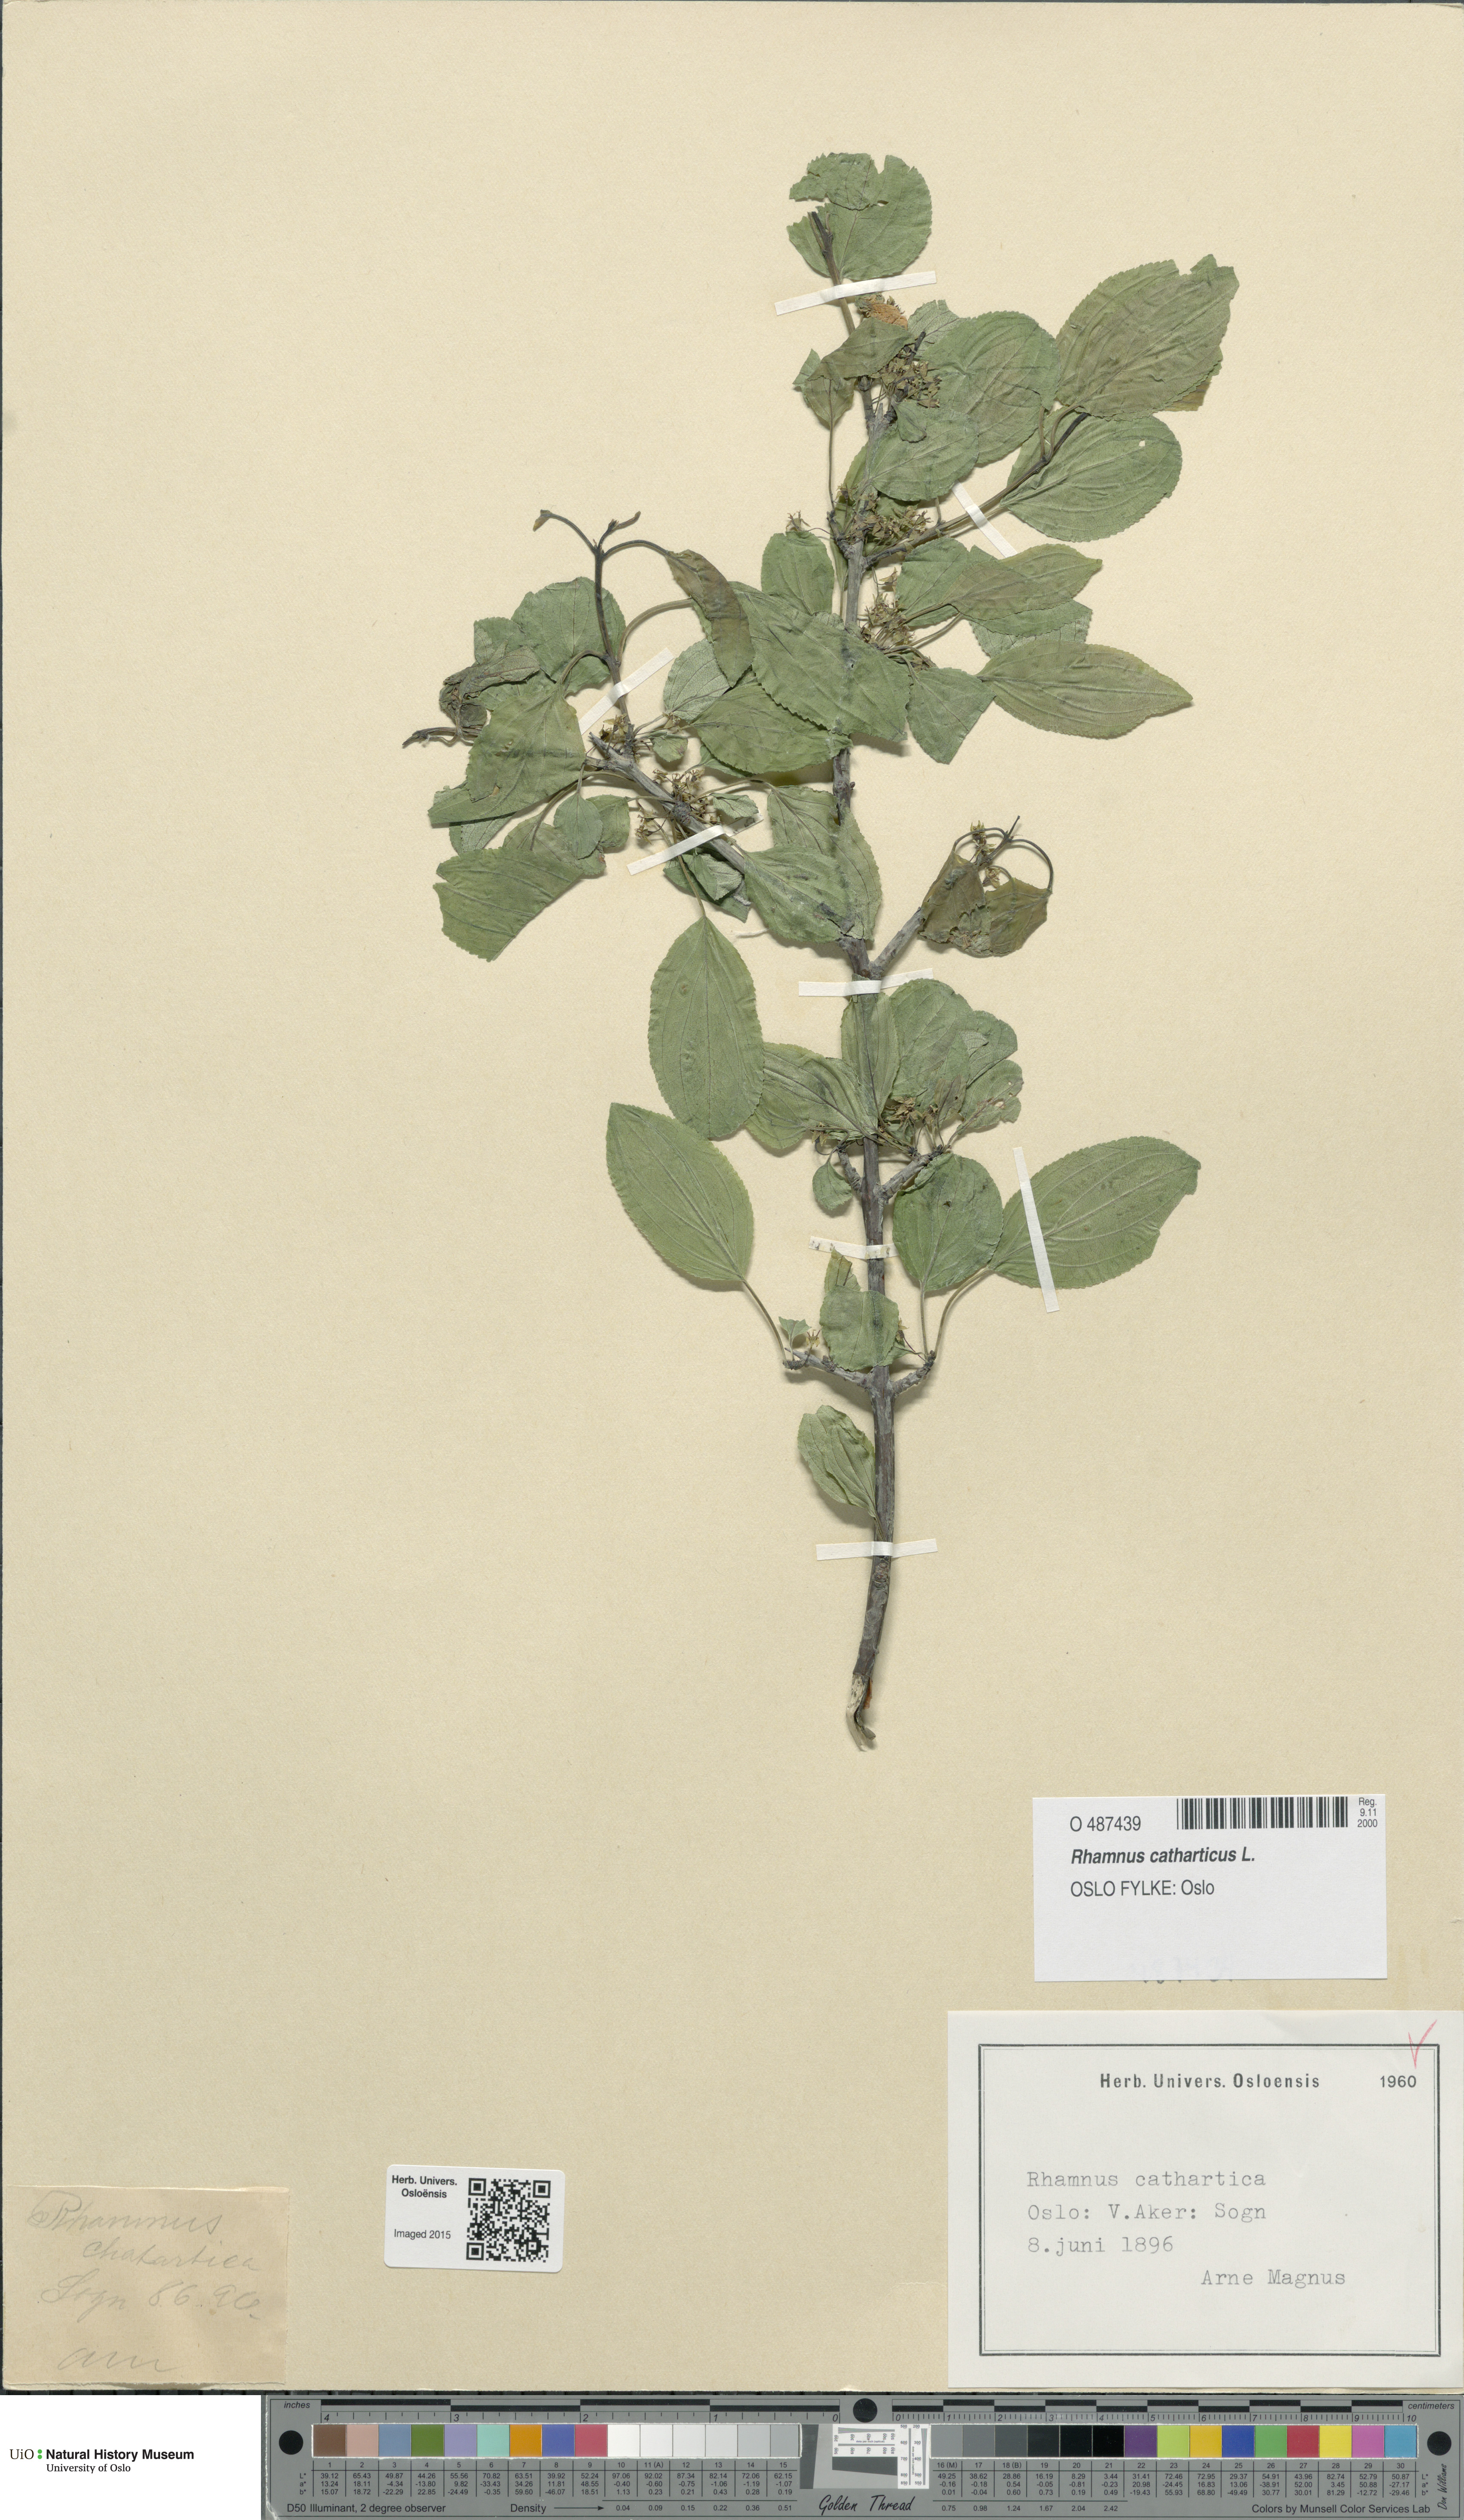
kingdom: Plantae
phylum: Tracheophyta
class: Magnoliopsida
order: Rosales
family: Rhamnaceae
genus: Rhamnus
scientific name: Rhamnus cathartica
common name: Common buckthorn
